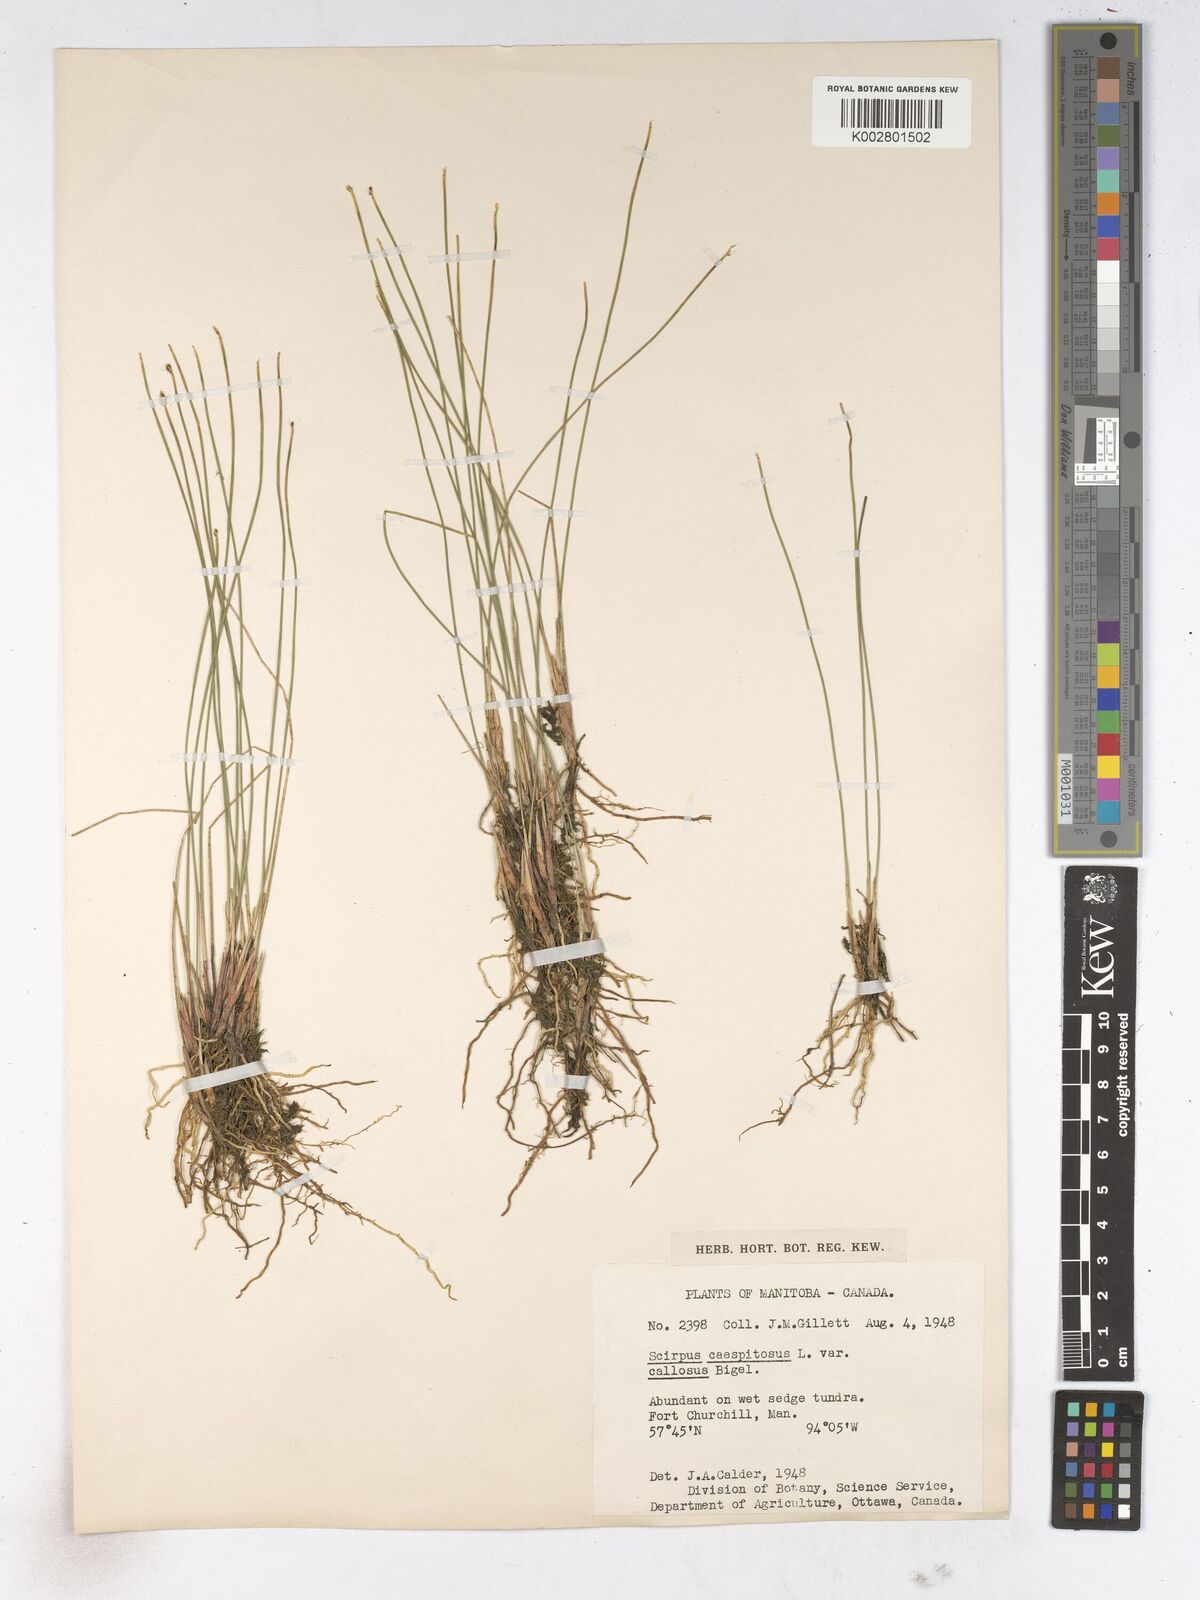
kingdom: Plantae
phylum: Tracheophyta
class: Liliopsida
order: Poales
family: Cyperaceae
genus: Trichophorum
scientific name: Trichophorum cespitosum
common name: Cespitose bulrush
